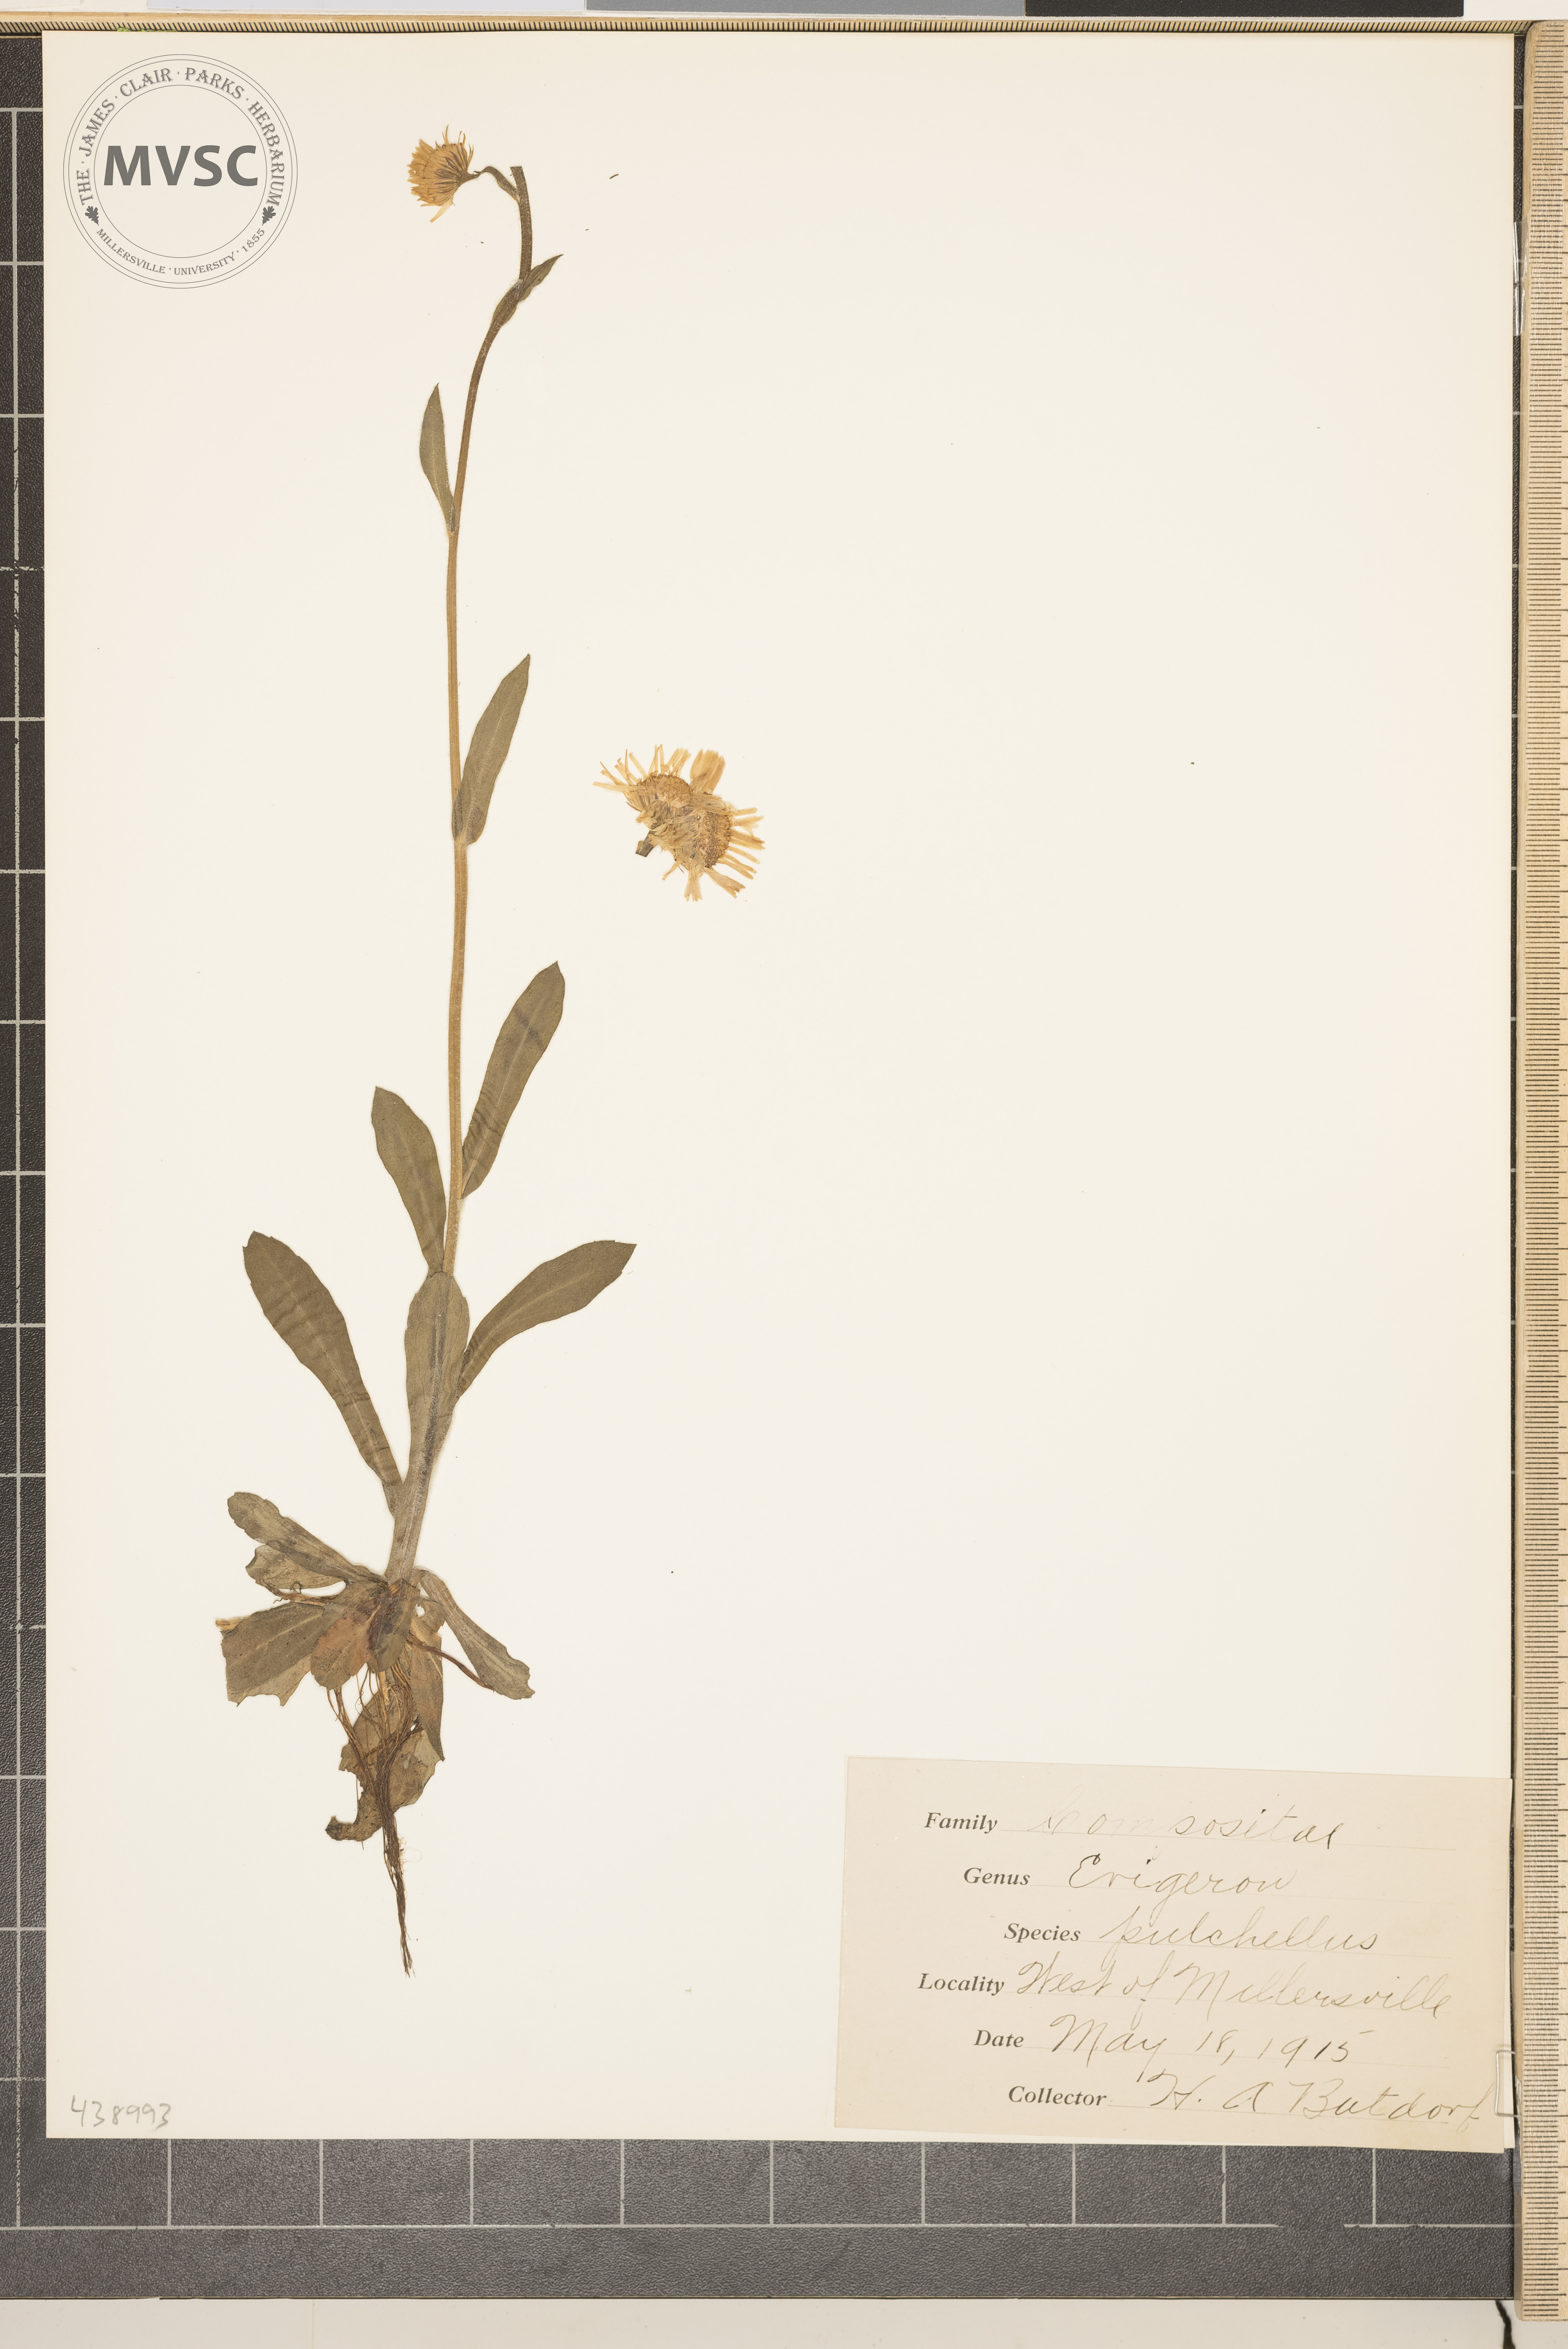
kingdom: Plantae
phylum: Tracheophyta
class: Magnoliopsida
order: Asterales
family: Asteraceae
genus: Erigeron
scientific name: Erigeron pulchellus
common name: Hairy fleabane
